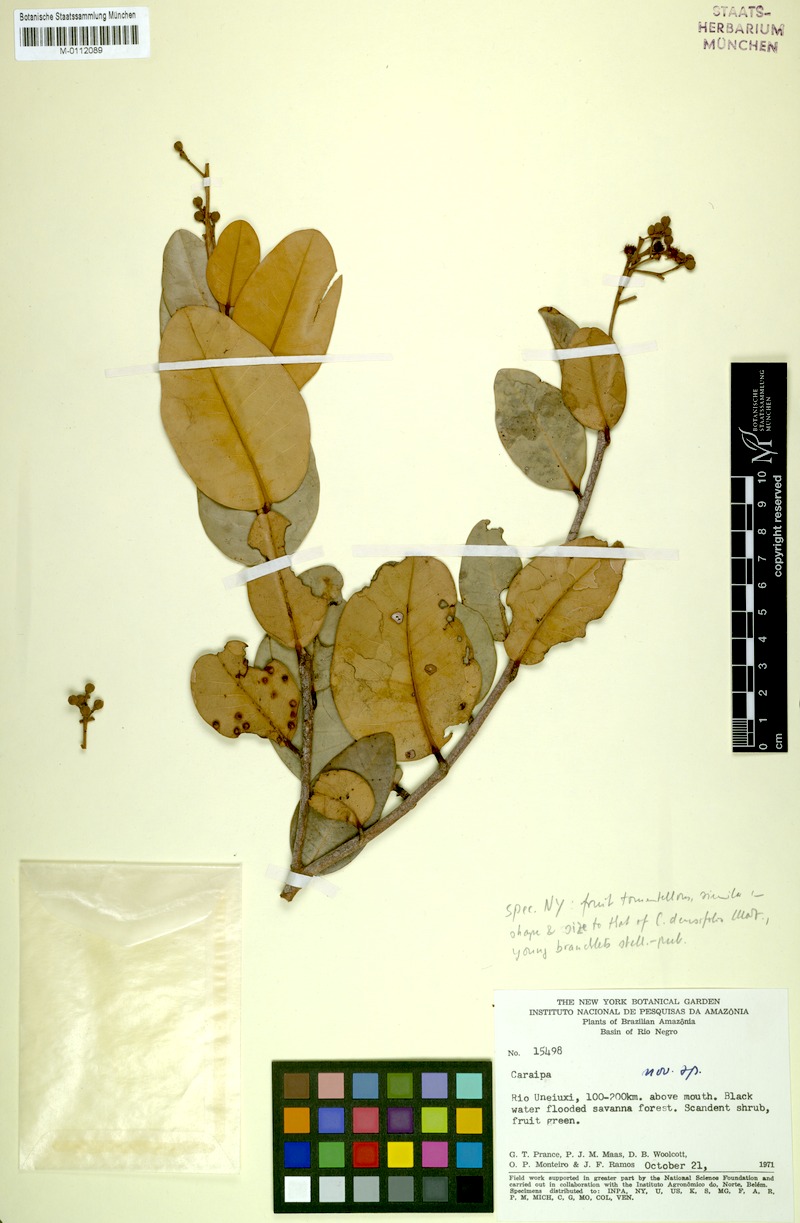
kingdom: Plantae
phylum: Tracheophyta
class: Magnoliopsida
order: Malpighiales
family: Calophyllaceae
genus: Caraipa
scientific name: Caraipa llanorum
